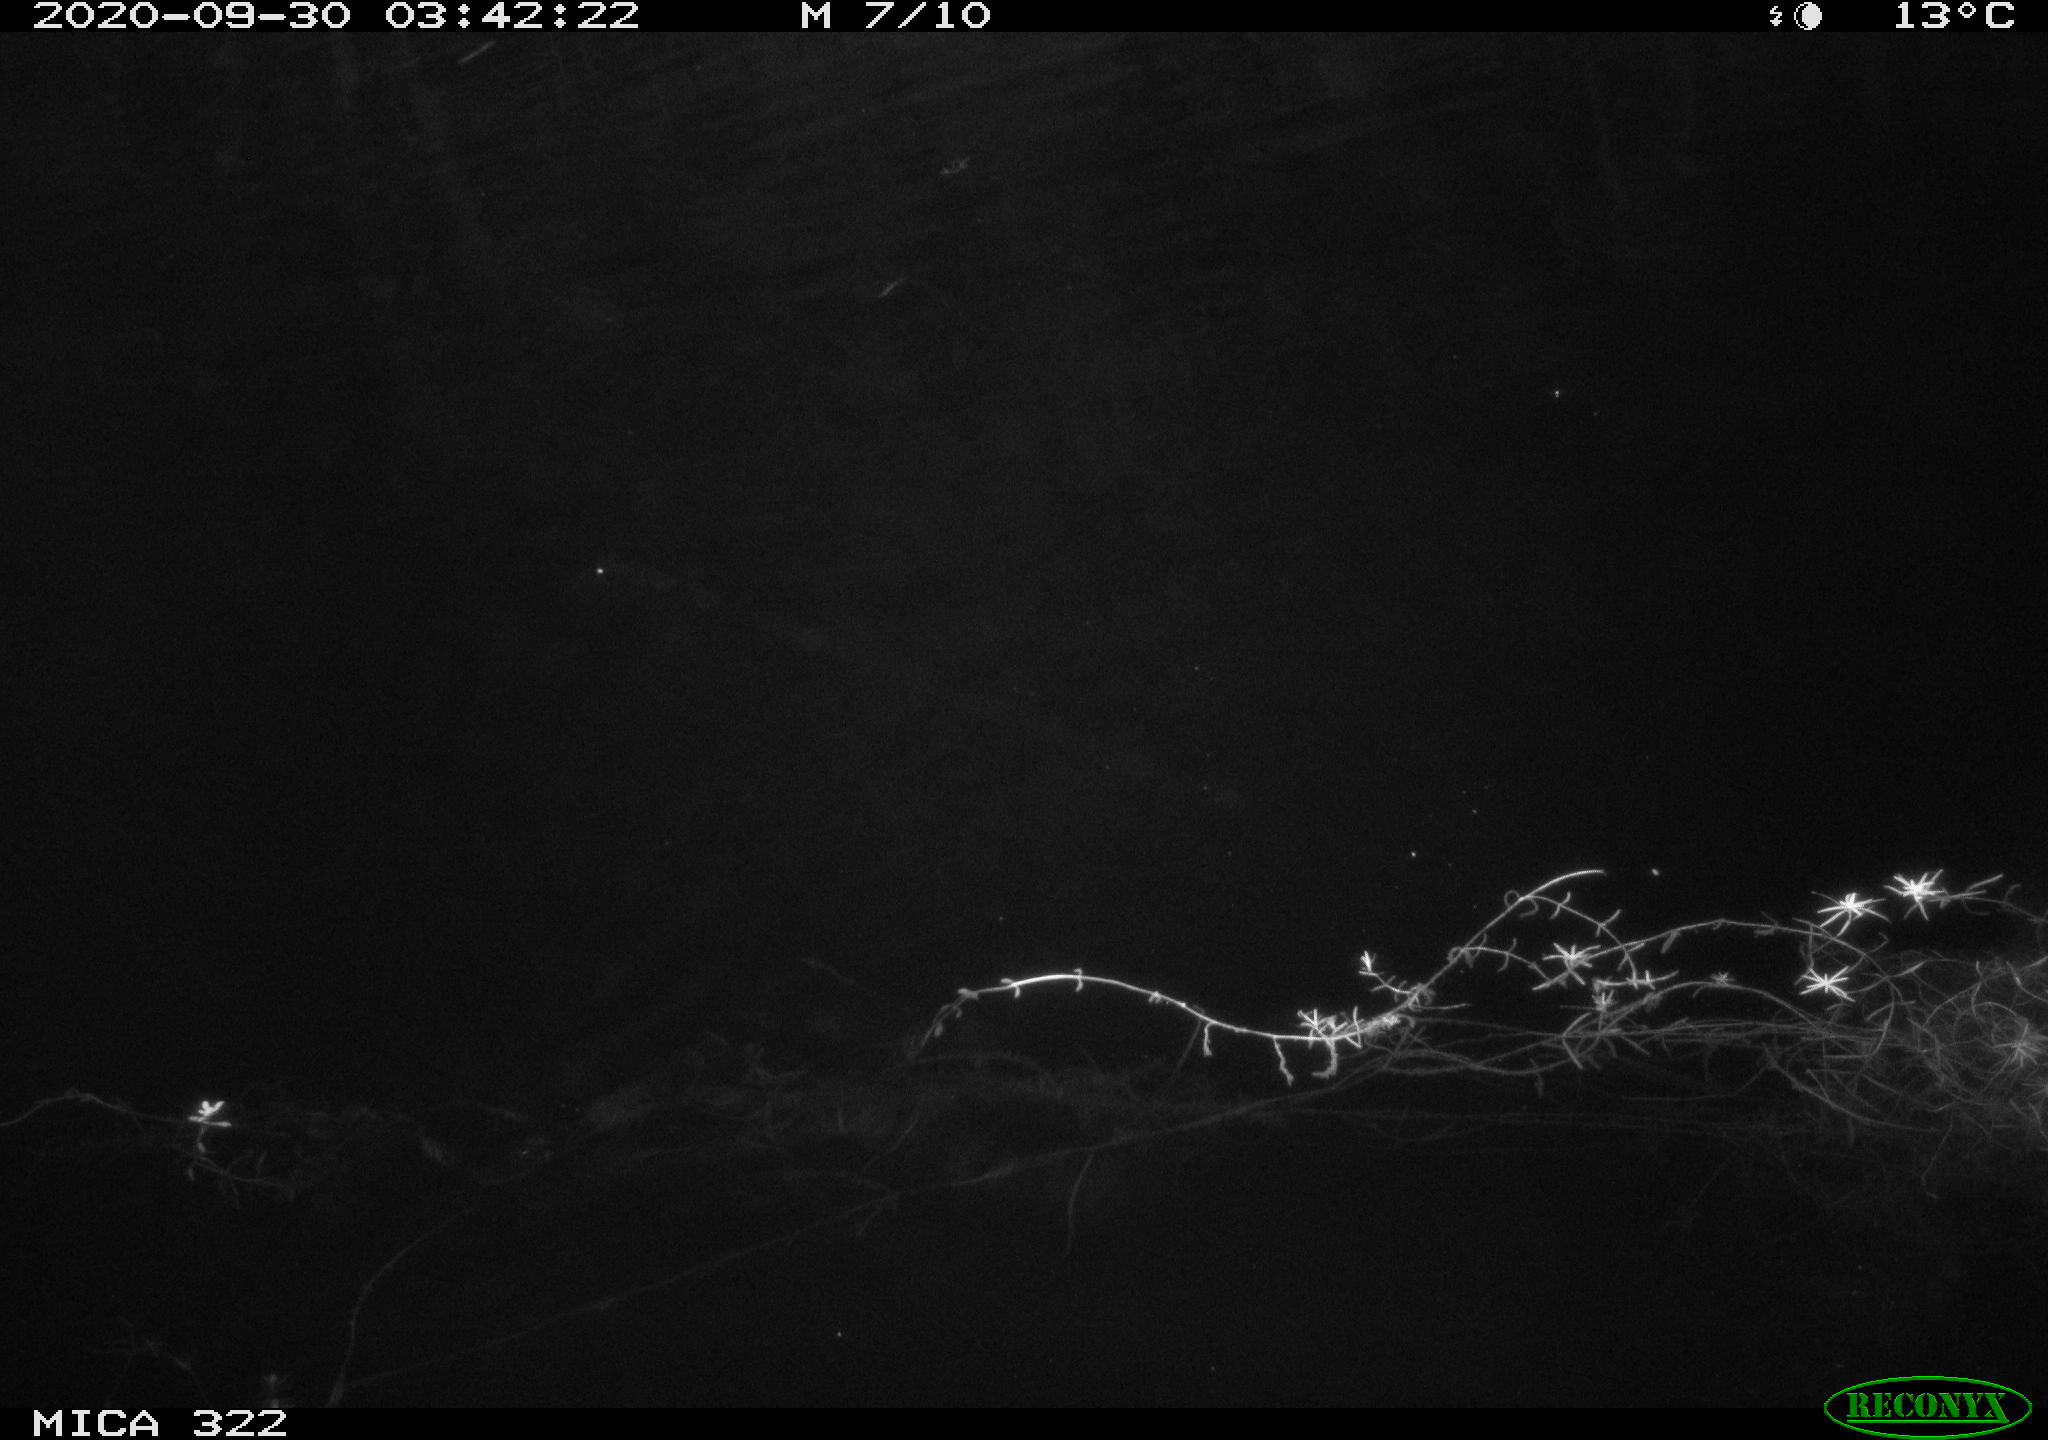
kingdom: Animalia
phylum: Chordata
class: Mammalia
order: Rodentia
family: Muridae
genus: Rattus
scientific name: Rattus norvegicus
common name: Brown rat
